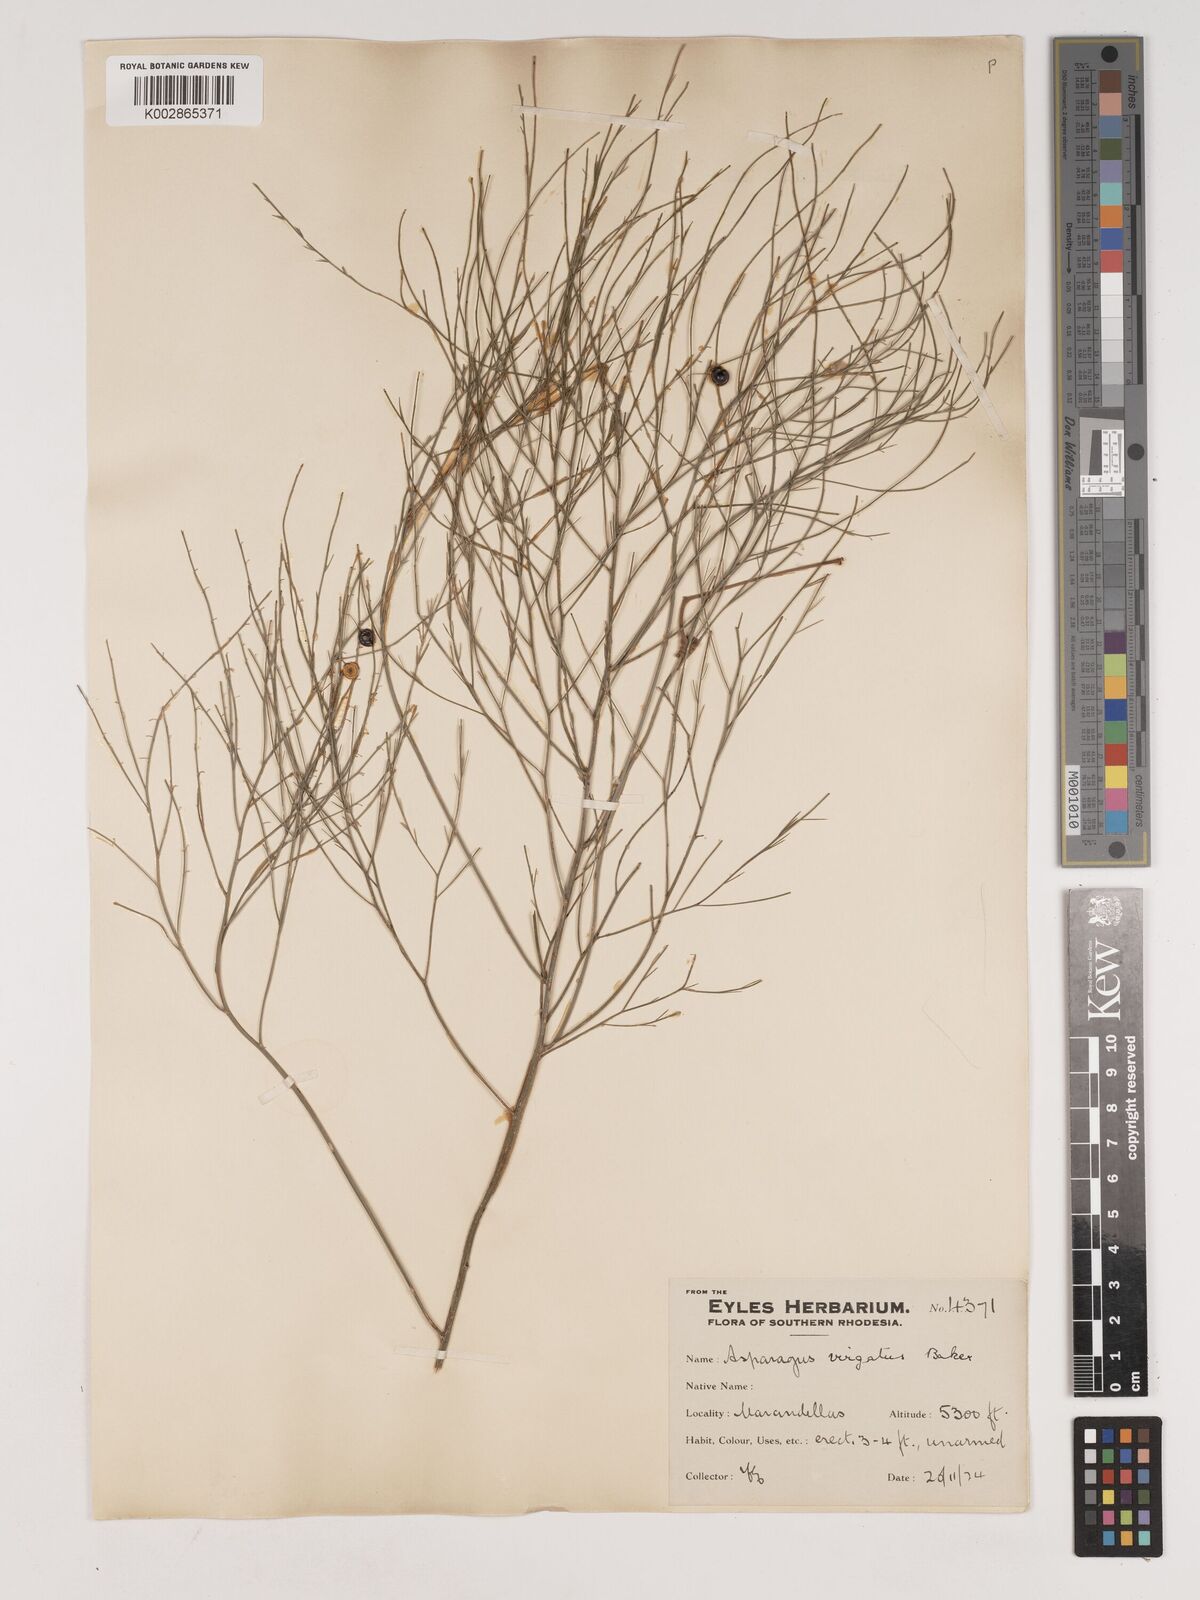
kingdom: Plantae
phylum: Tracheophyta
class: Liliopsida
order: Asparagales
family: Asparagaceae
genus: Asparagus
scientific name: Asparagus virgatus
